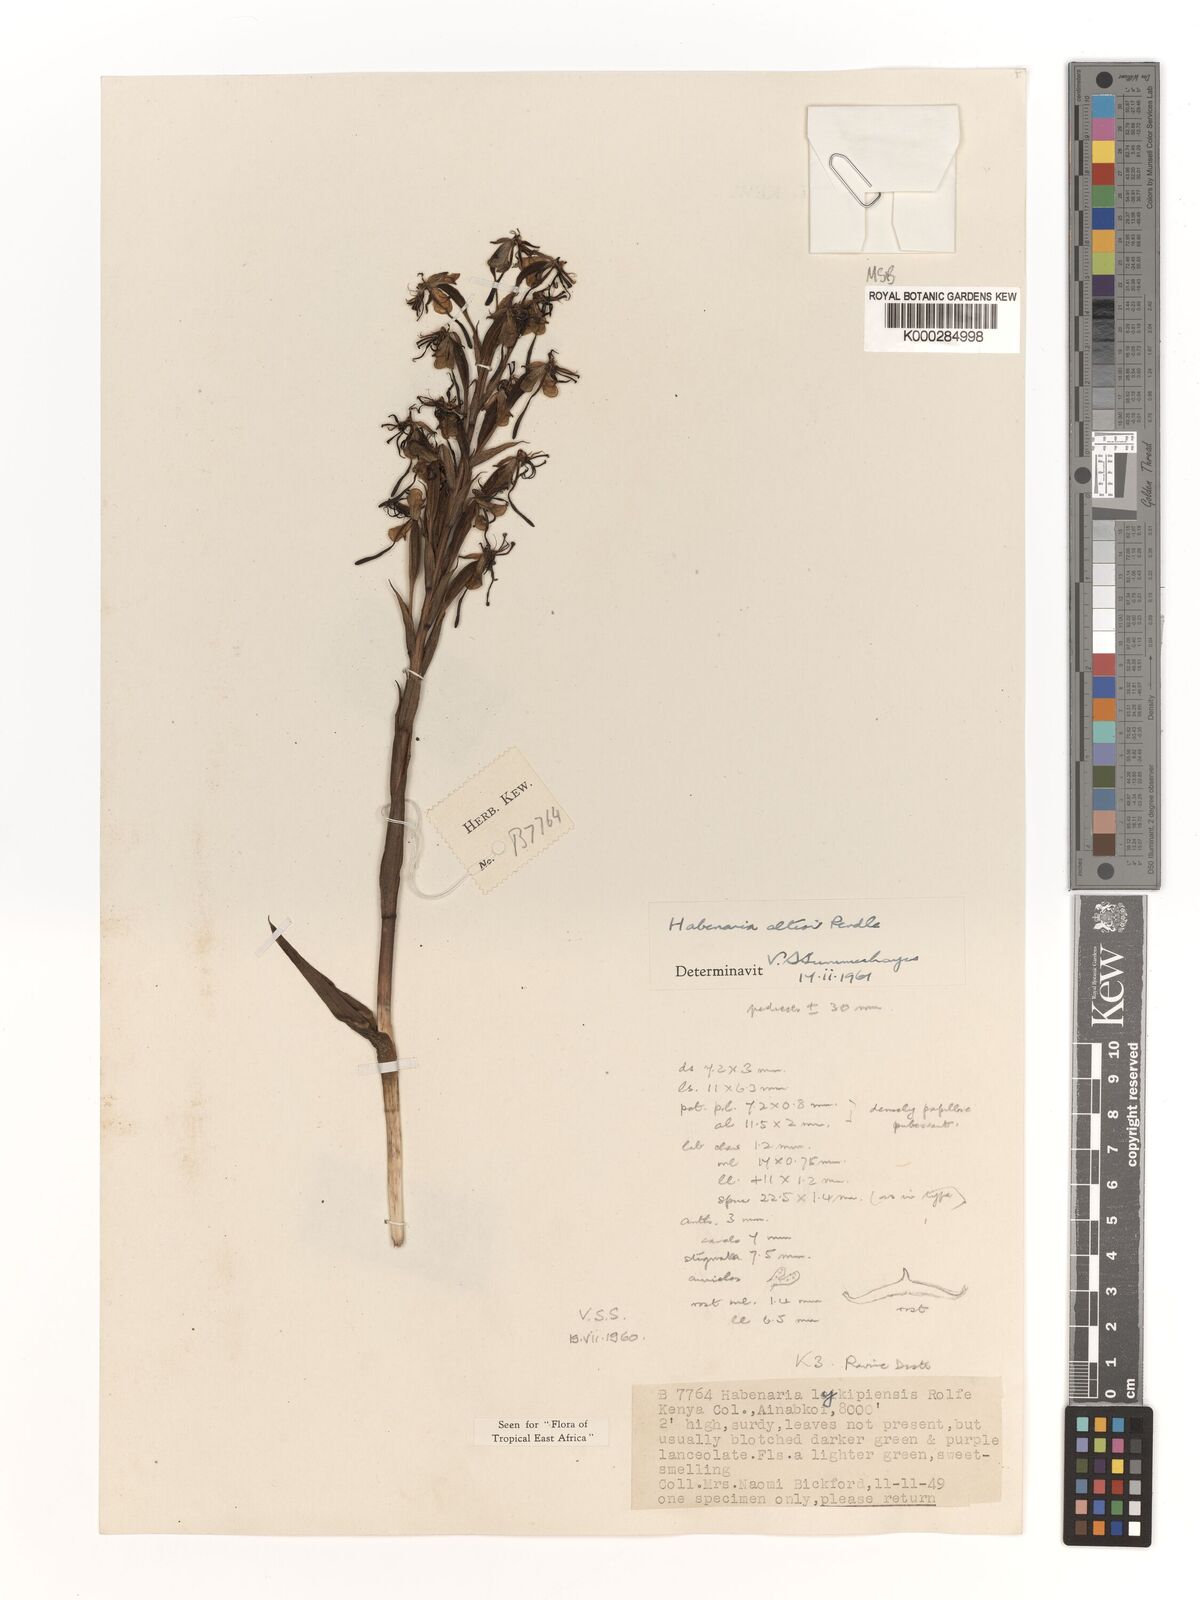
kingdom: Plantae
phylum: Tracheophyta
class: Liliopsida
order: Asparagales
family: Orchidaceae
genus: Habenaria
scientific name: Habenaria altior
